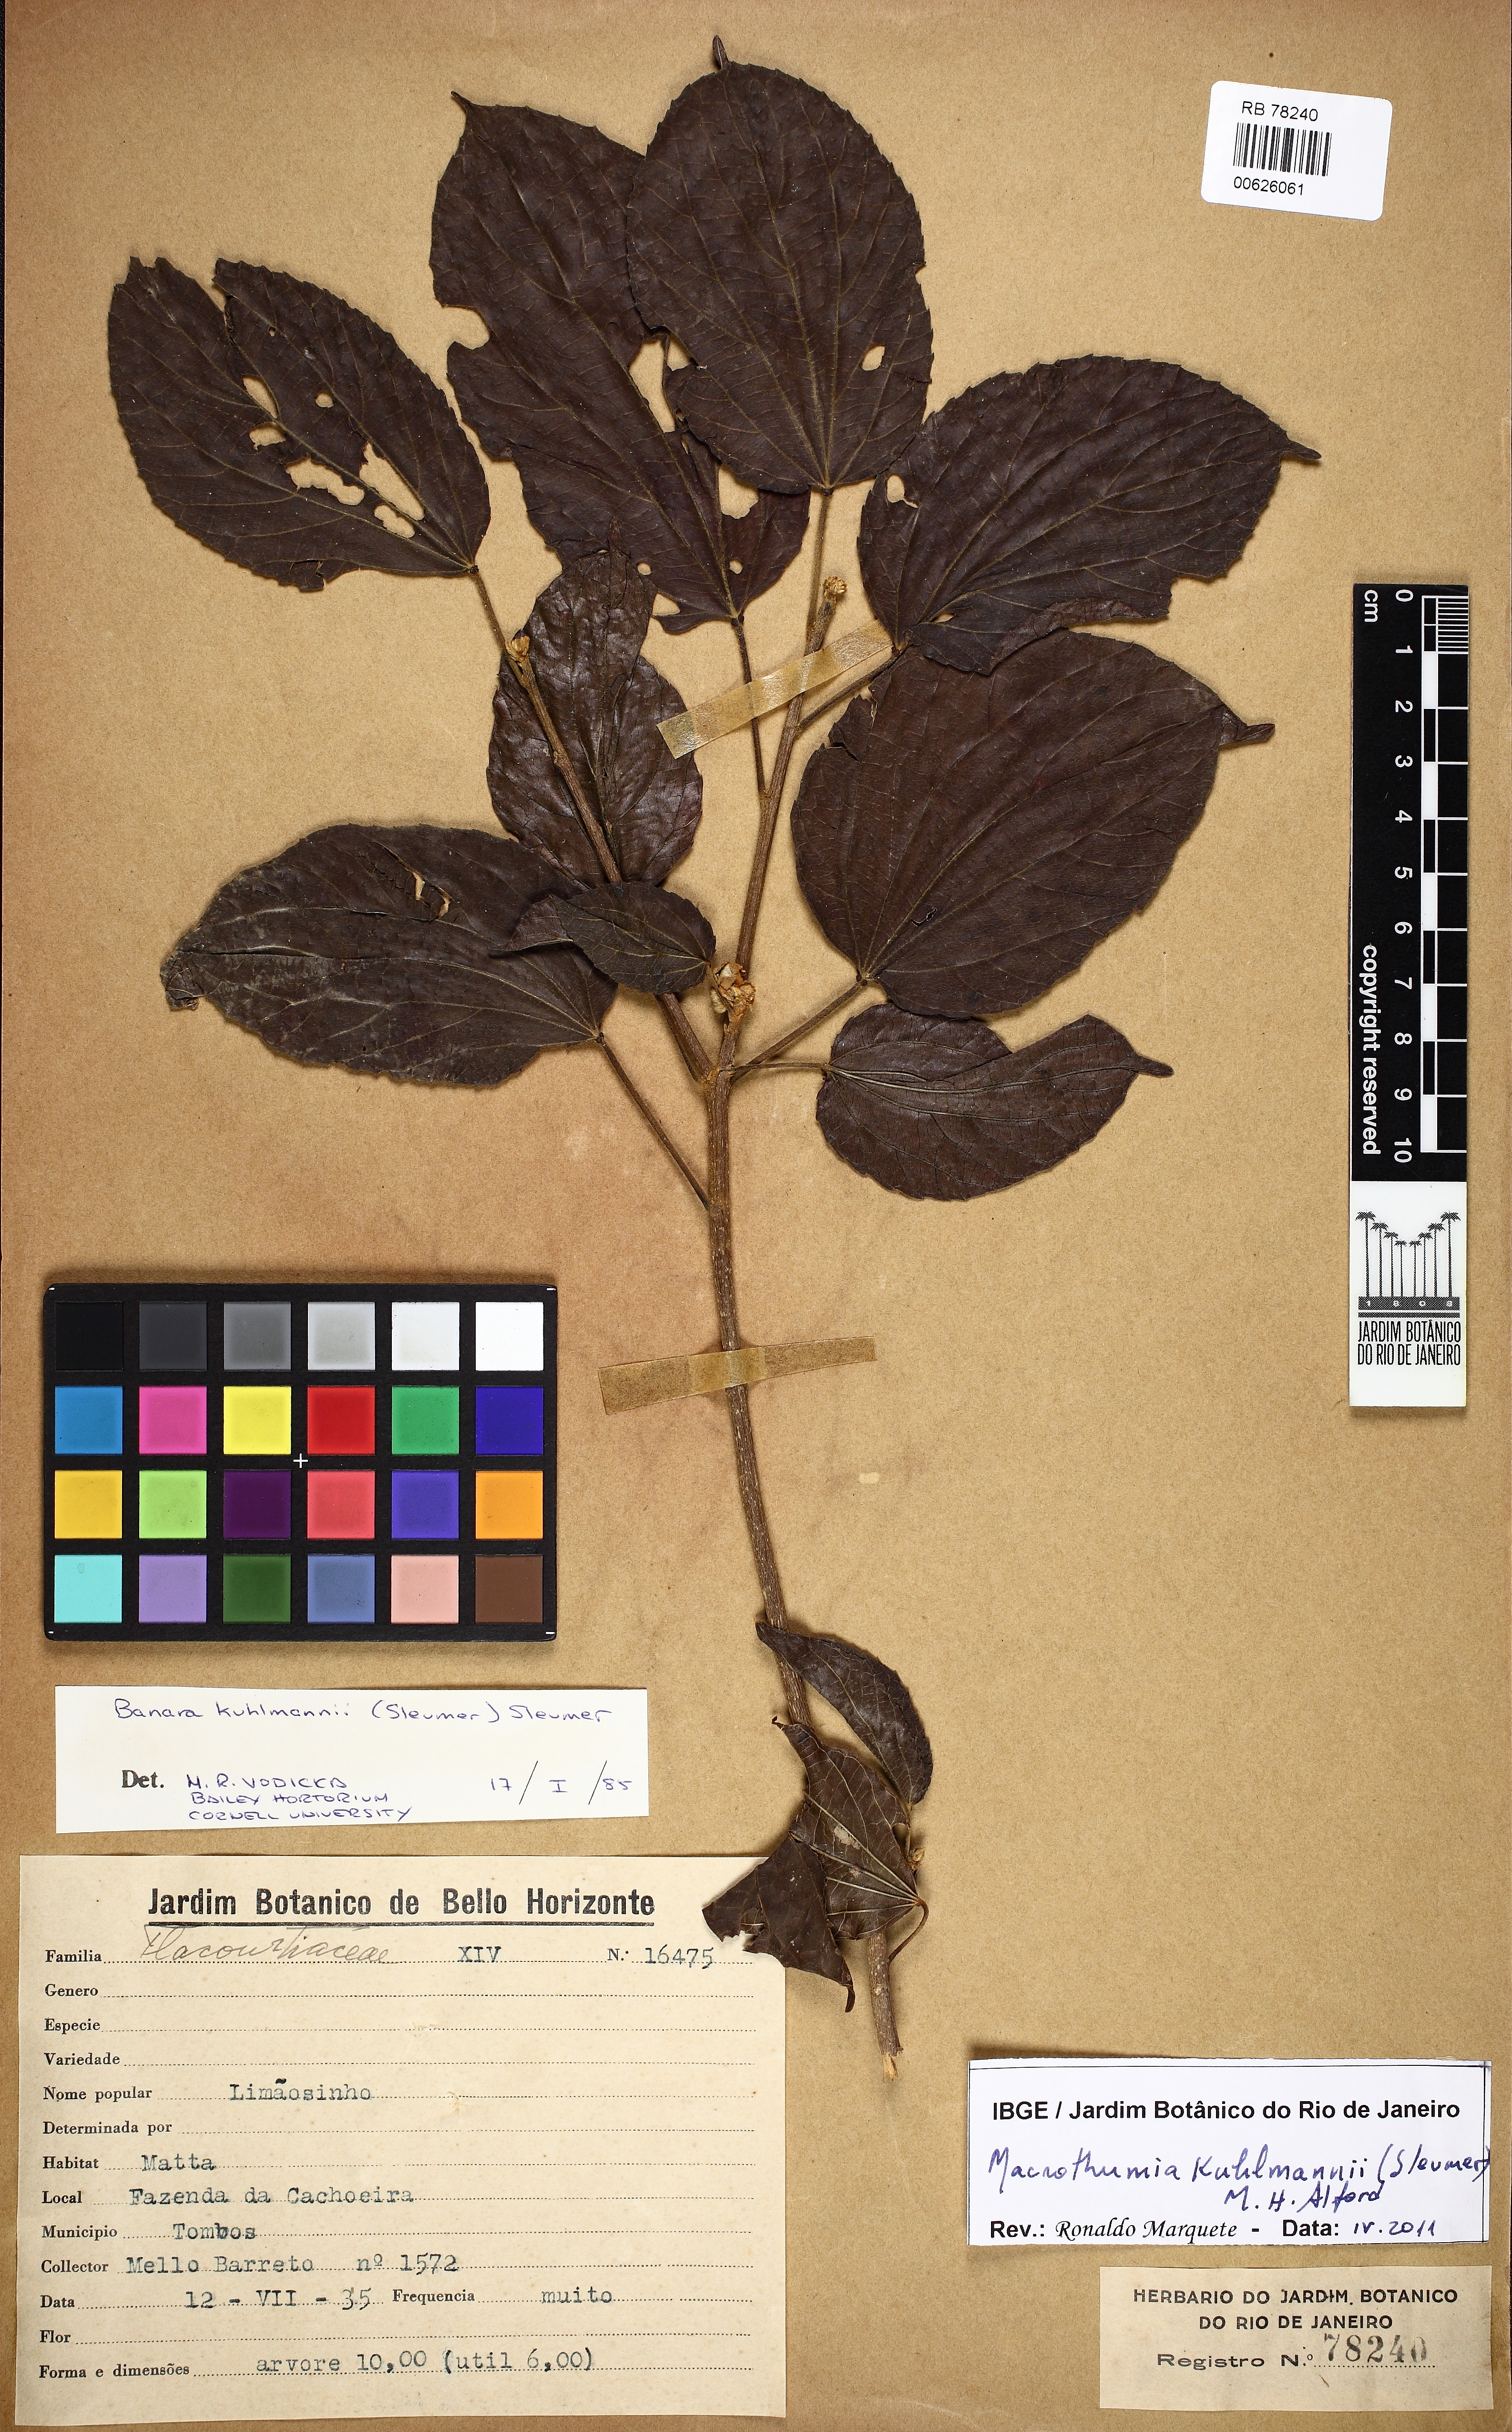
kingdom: Plantae
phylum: Tracheophyta
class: Magnoliopsida
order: Malpighiales
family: Salicaceae
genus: Macrothumia
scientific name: Macrothumia kuhlmannii
